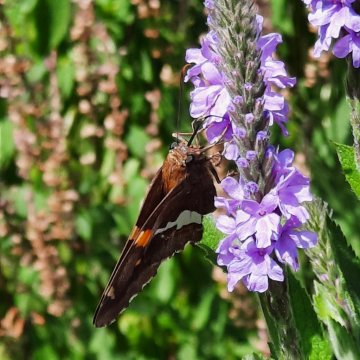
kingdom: Animalia
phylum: Arthropoda
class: Insecta
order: Lepidoptera
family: Hesperiidae
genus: Epargyreus
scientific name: Epargyreus clarus
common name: Silver-spotted Skipper
